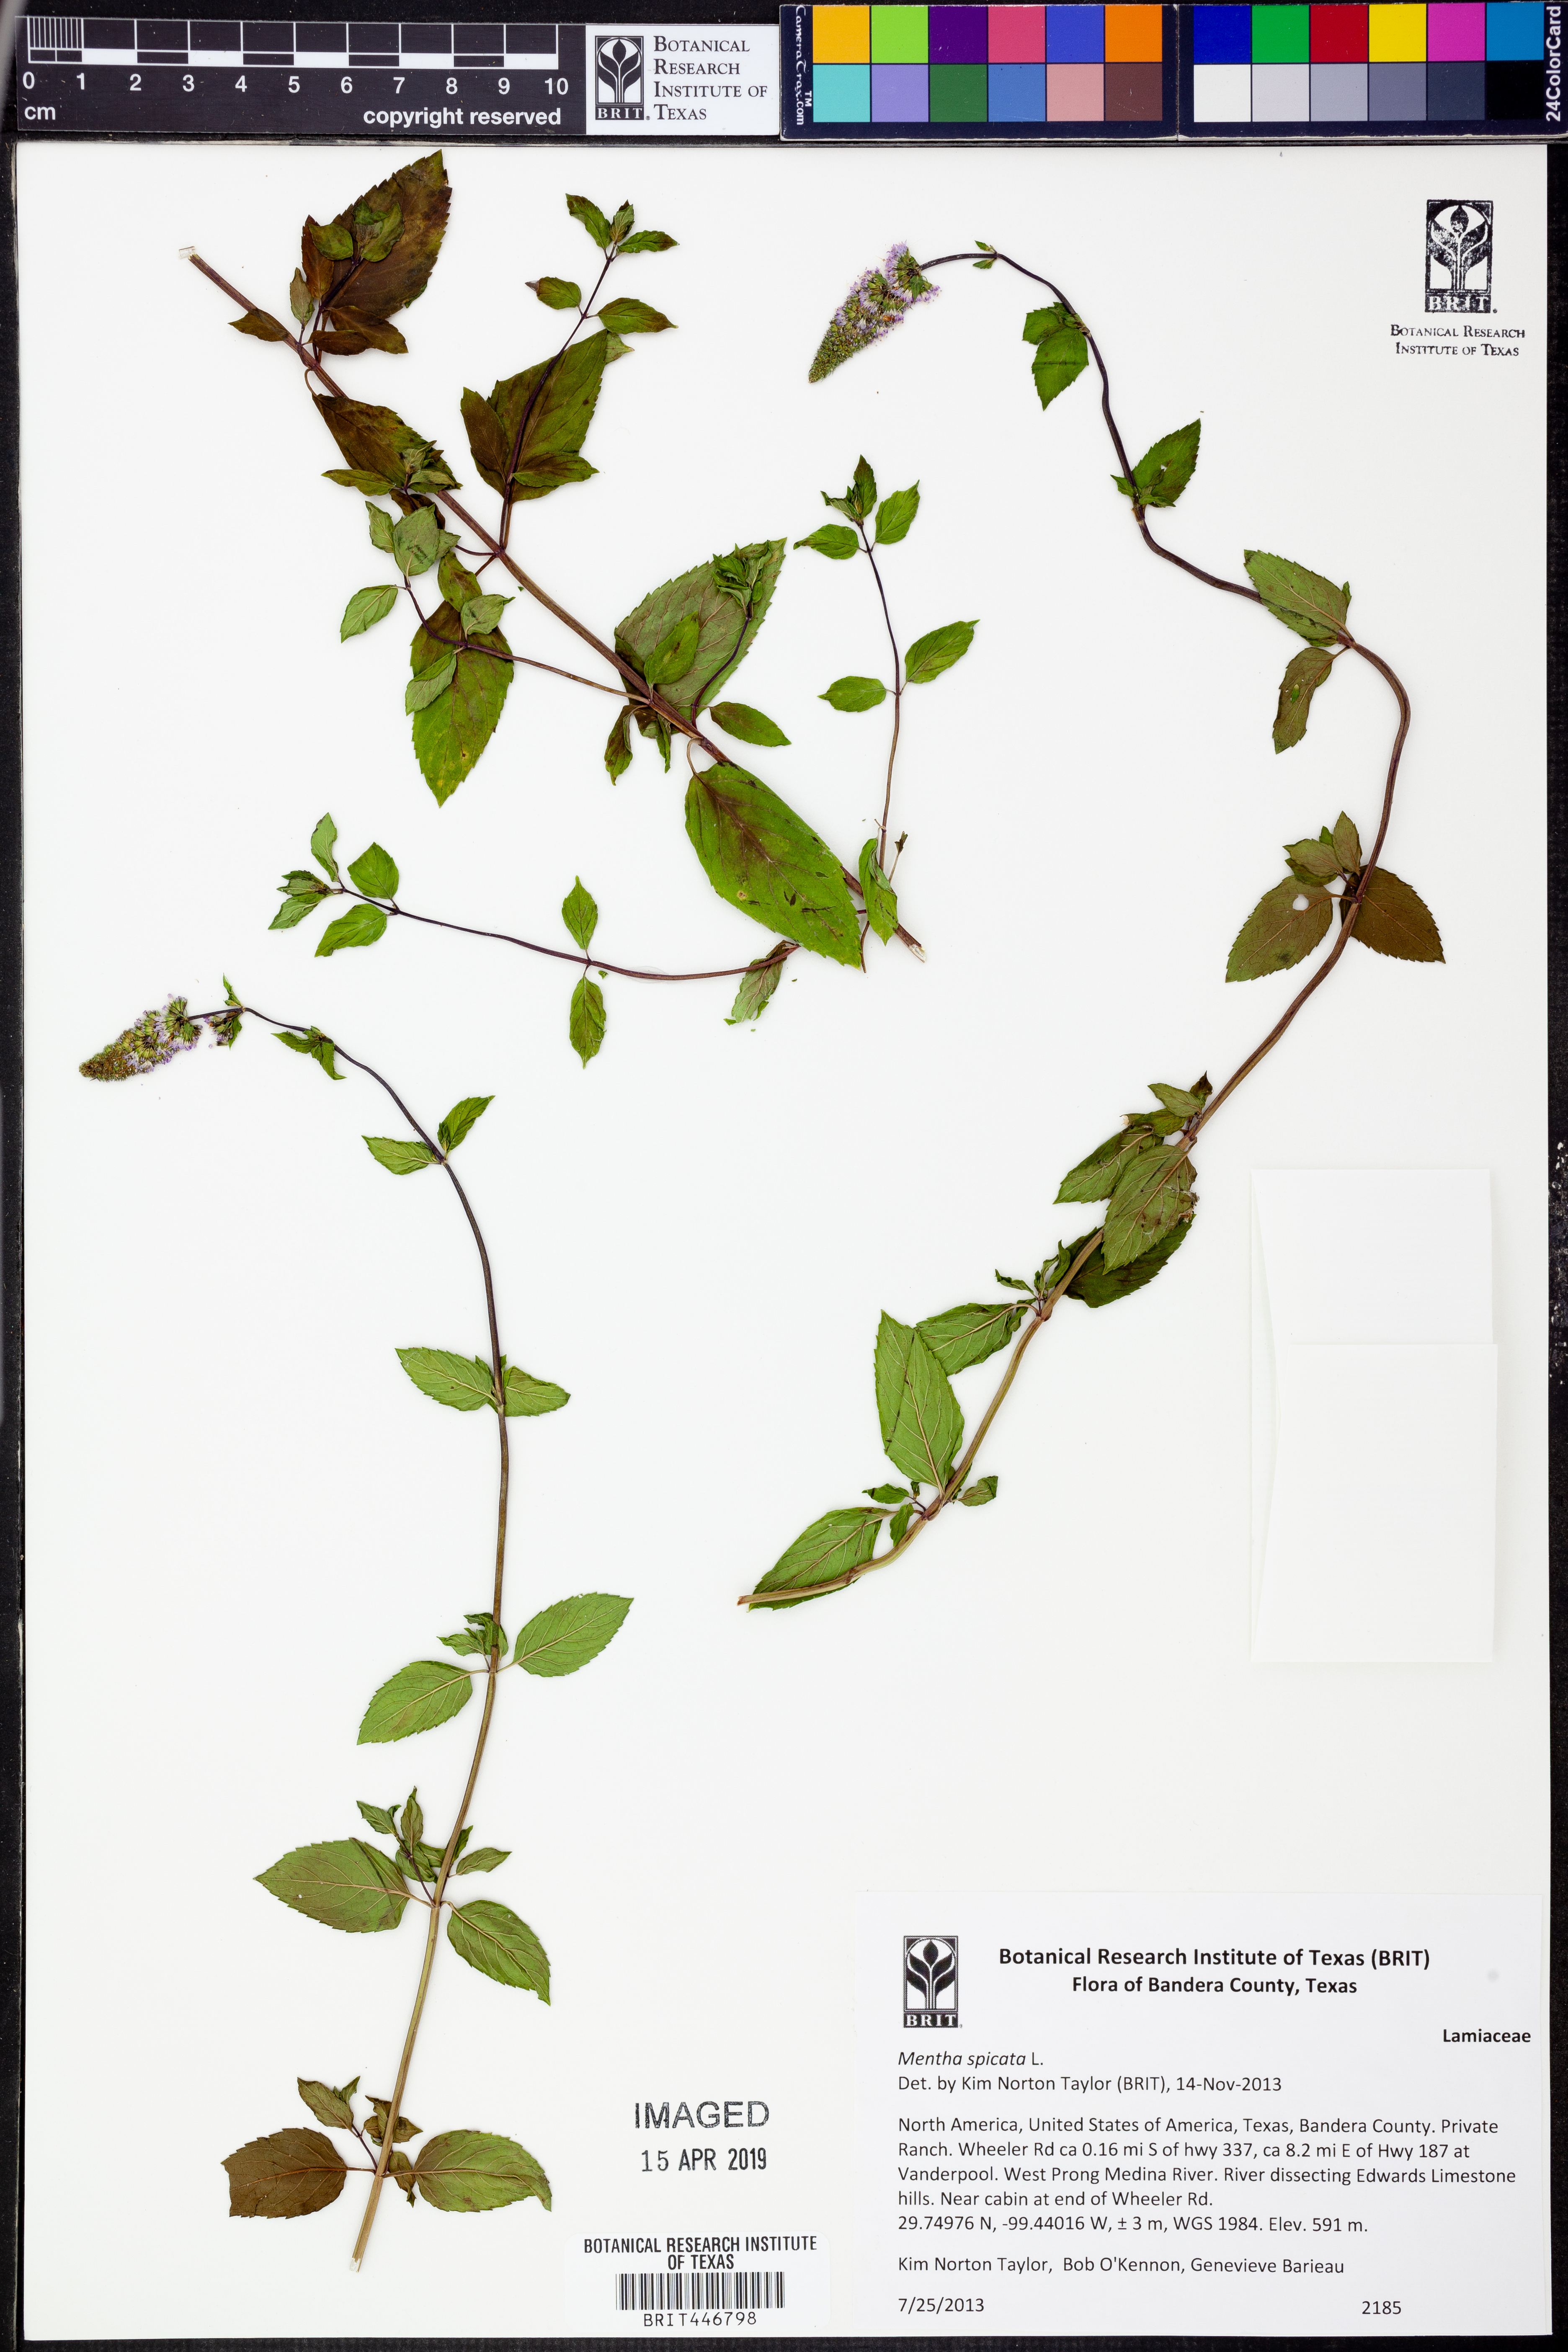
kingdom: Plantae
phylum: Tracheophyta
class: Magnoliopsida
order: Lamiales
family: Lamiaceae
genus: Mentha
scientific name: Mentha spicata
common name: Spearmint
